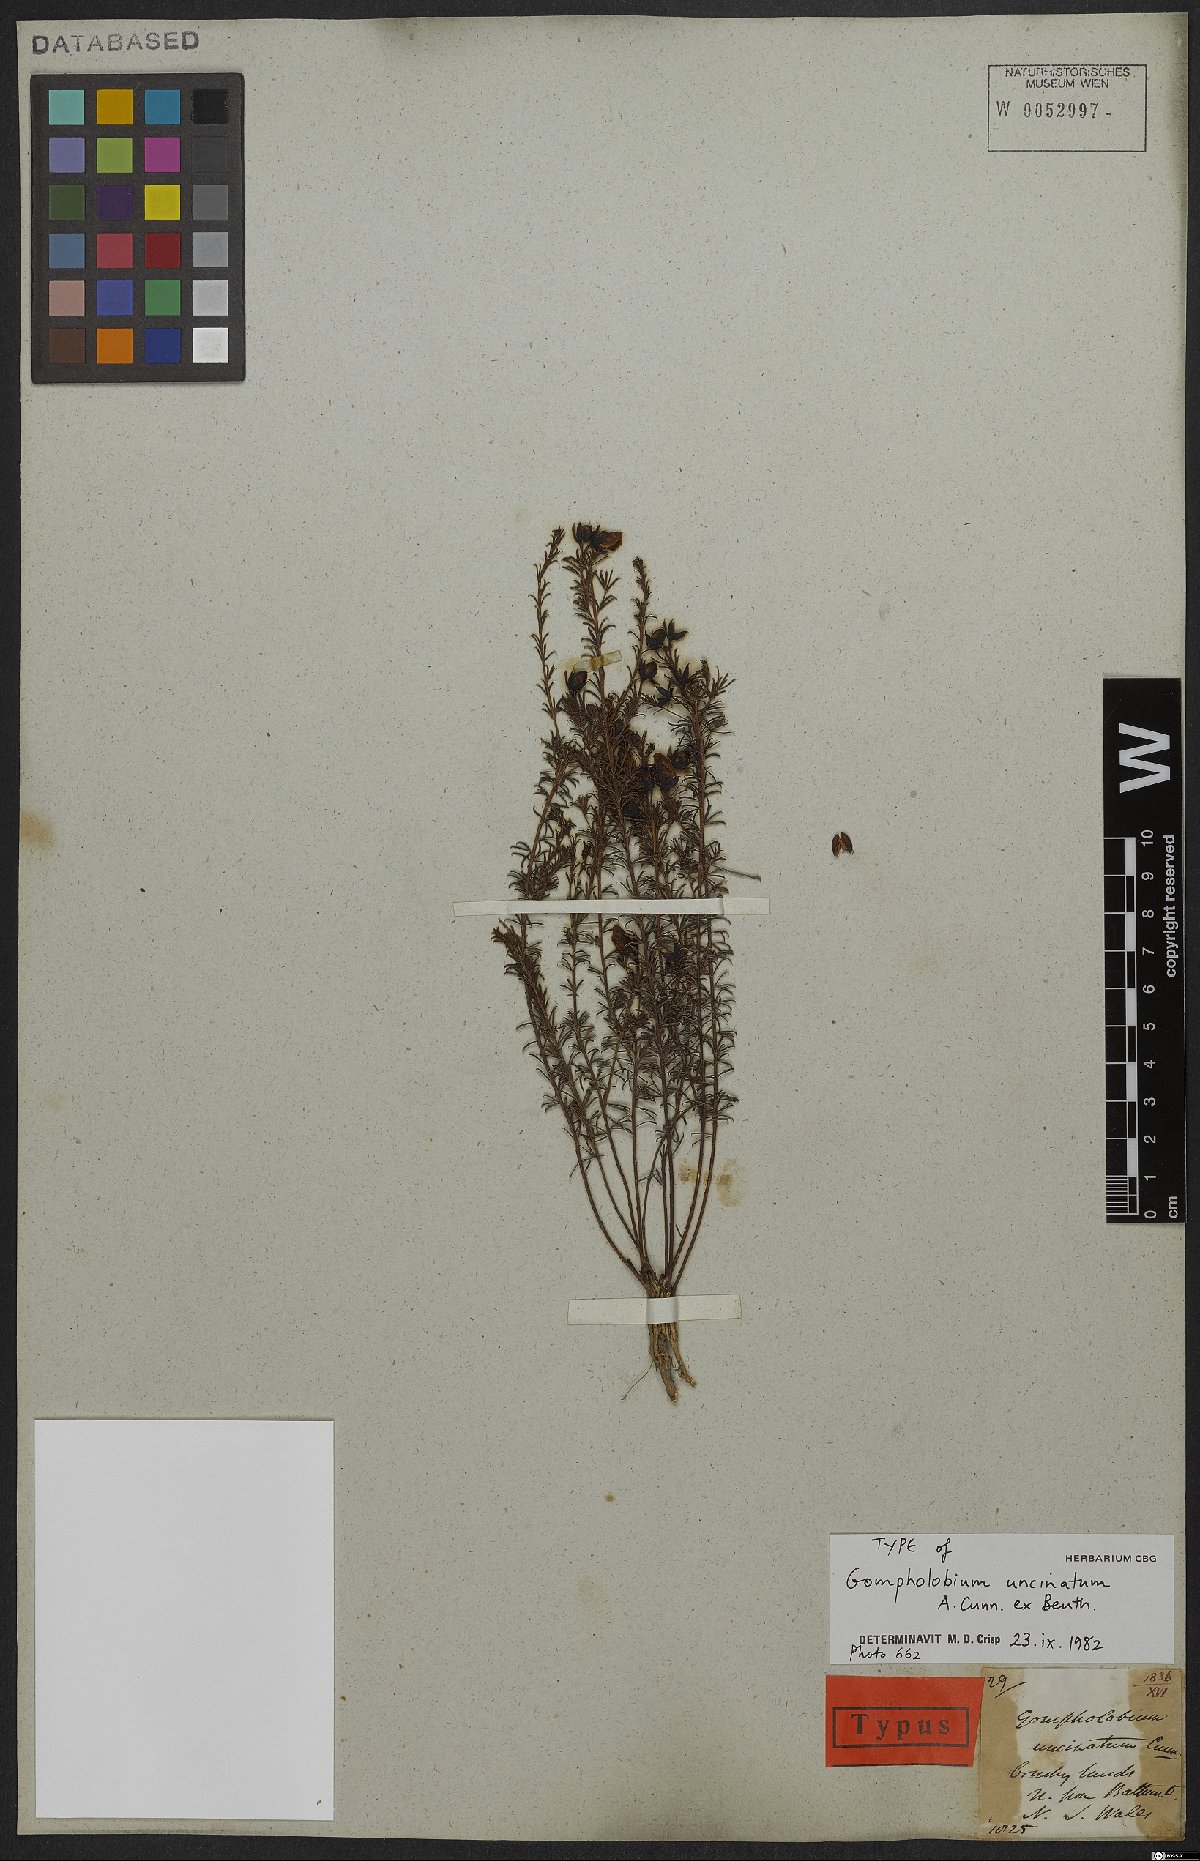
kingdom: Plantae
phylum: Tracheophyta
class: Magnoliopsida
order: Fabales
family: Fabaceae
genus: Gompholobium
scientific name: Gompholobium uncinatum
